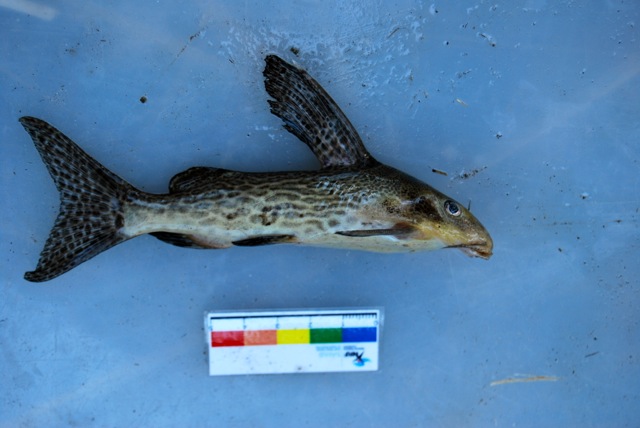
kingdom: Animalia
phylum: Chordata
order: Siluriformes
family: Mochokidae
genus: Synodontis
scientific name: Synodontis
